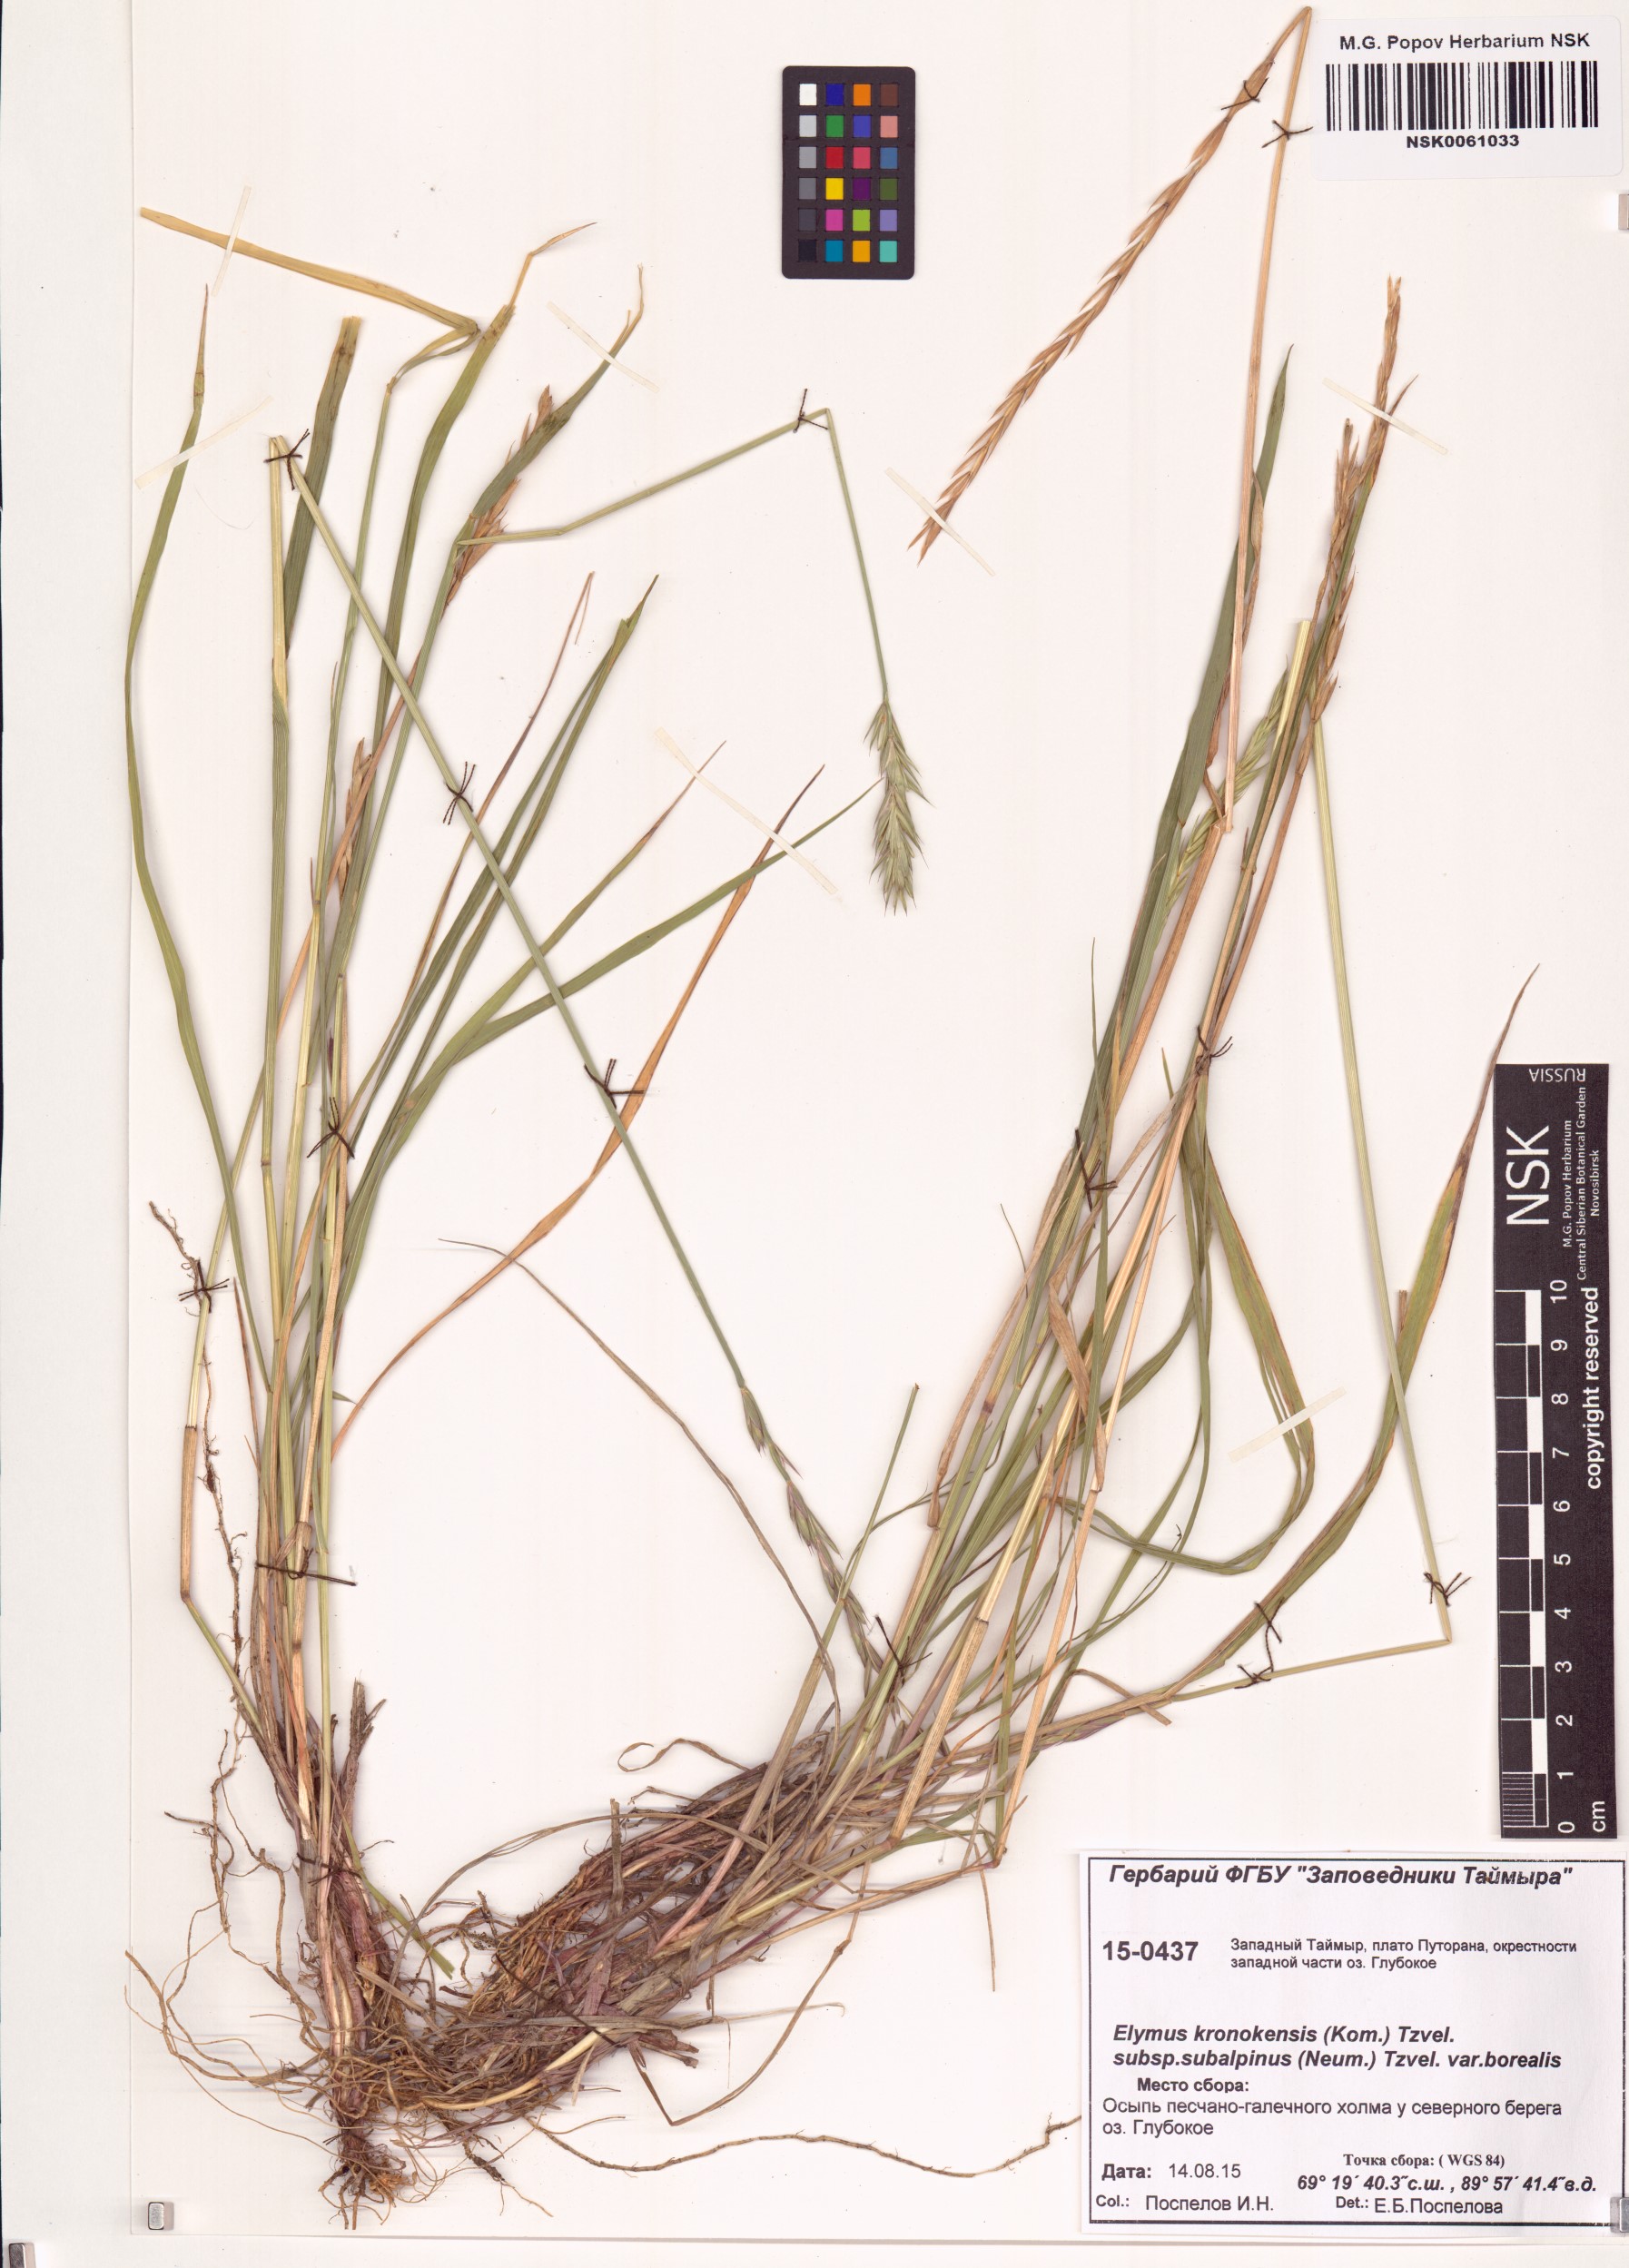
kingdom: Plantae
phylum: Tracheophyta
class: Liliopsida
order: Poales
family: Poaceae
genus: Elymus
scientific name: Elymus macrourus
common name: Northern wheatgrass
